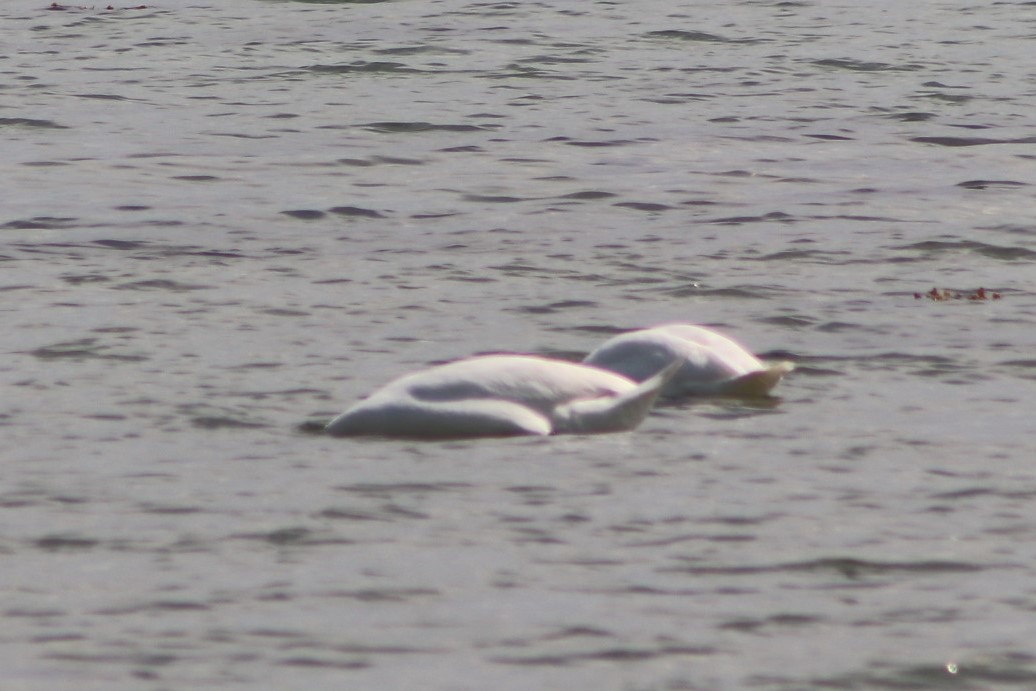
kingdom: Animalia
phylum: Chordata
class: Aves
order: Anseriformes
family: Anatidae
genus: Cygnus
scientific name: Cygnus olor
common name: Knopsvane
